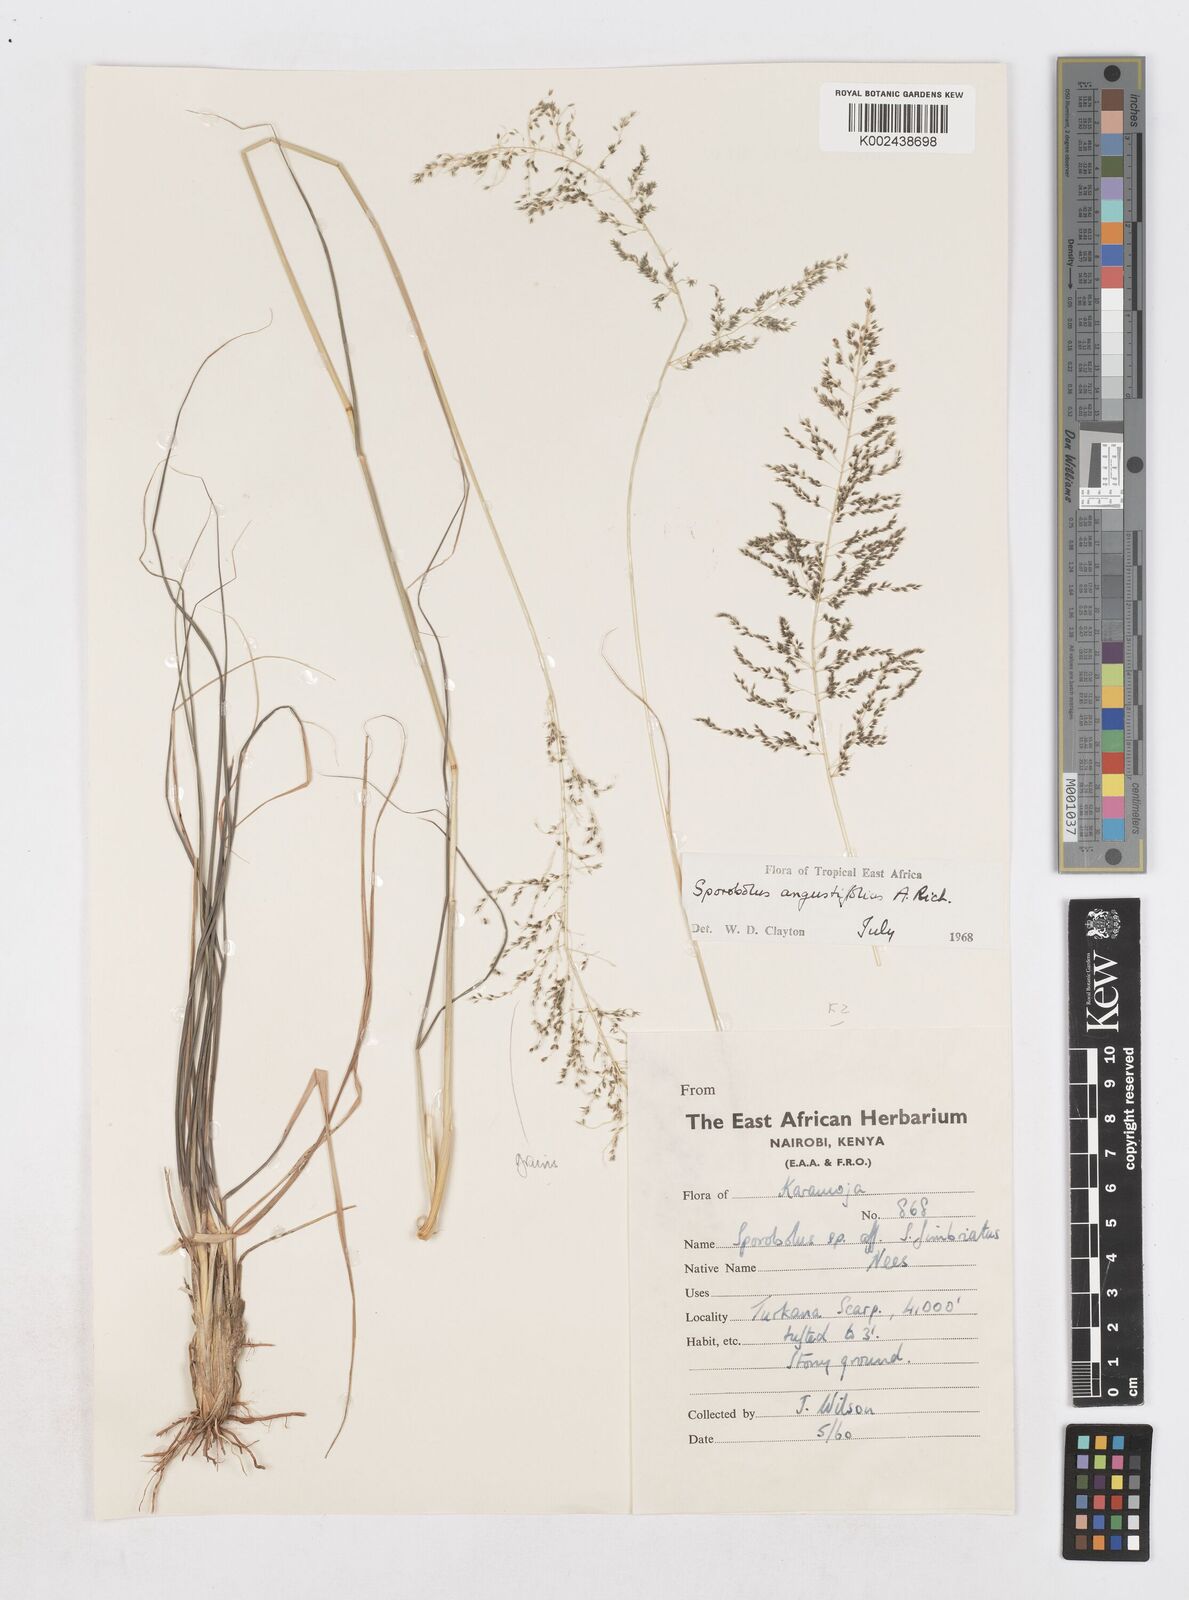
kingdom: Plantae
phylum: Tracheophyta
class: Liliopsida
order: Poales
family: Poaceae
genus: Sporobolus
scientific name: Sporobolus angustifolius
